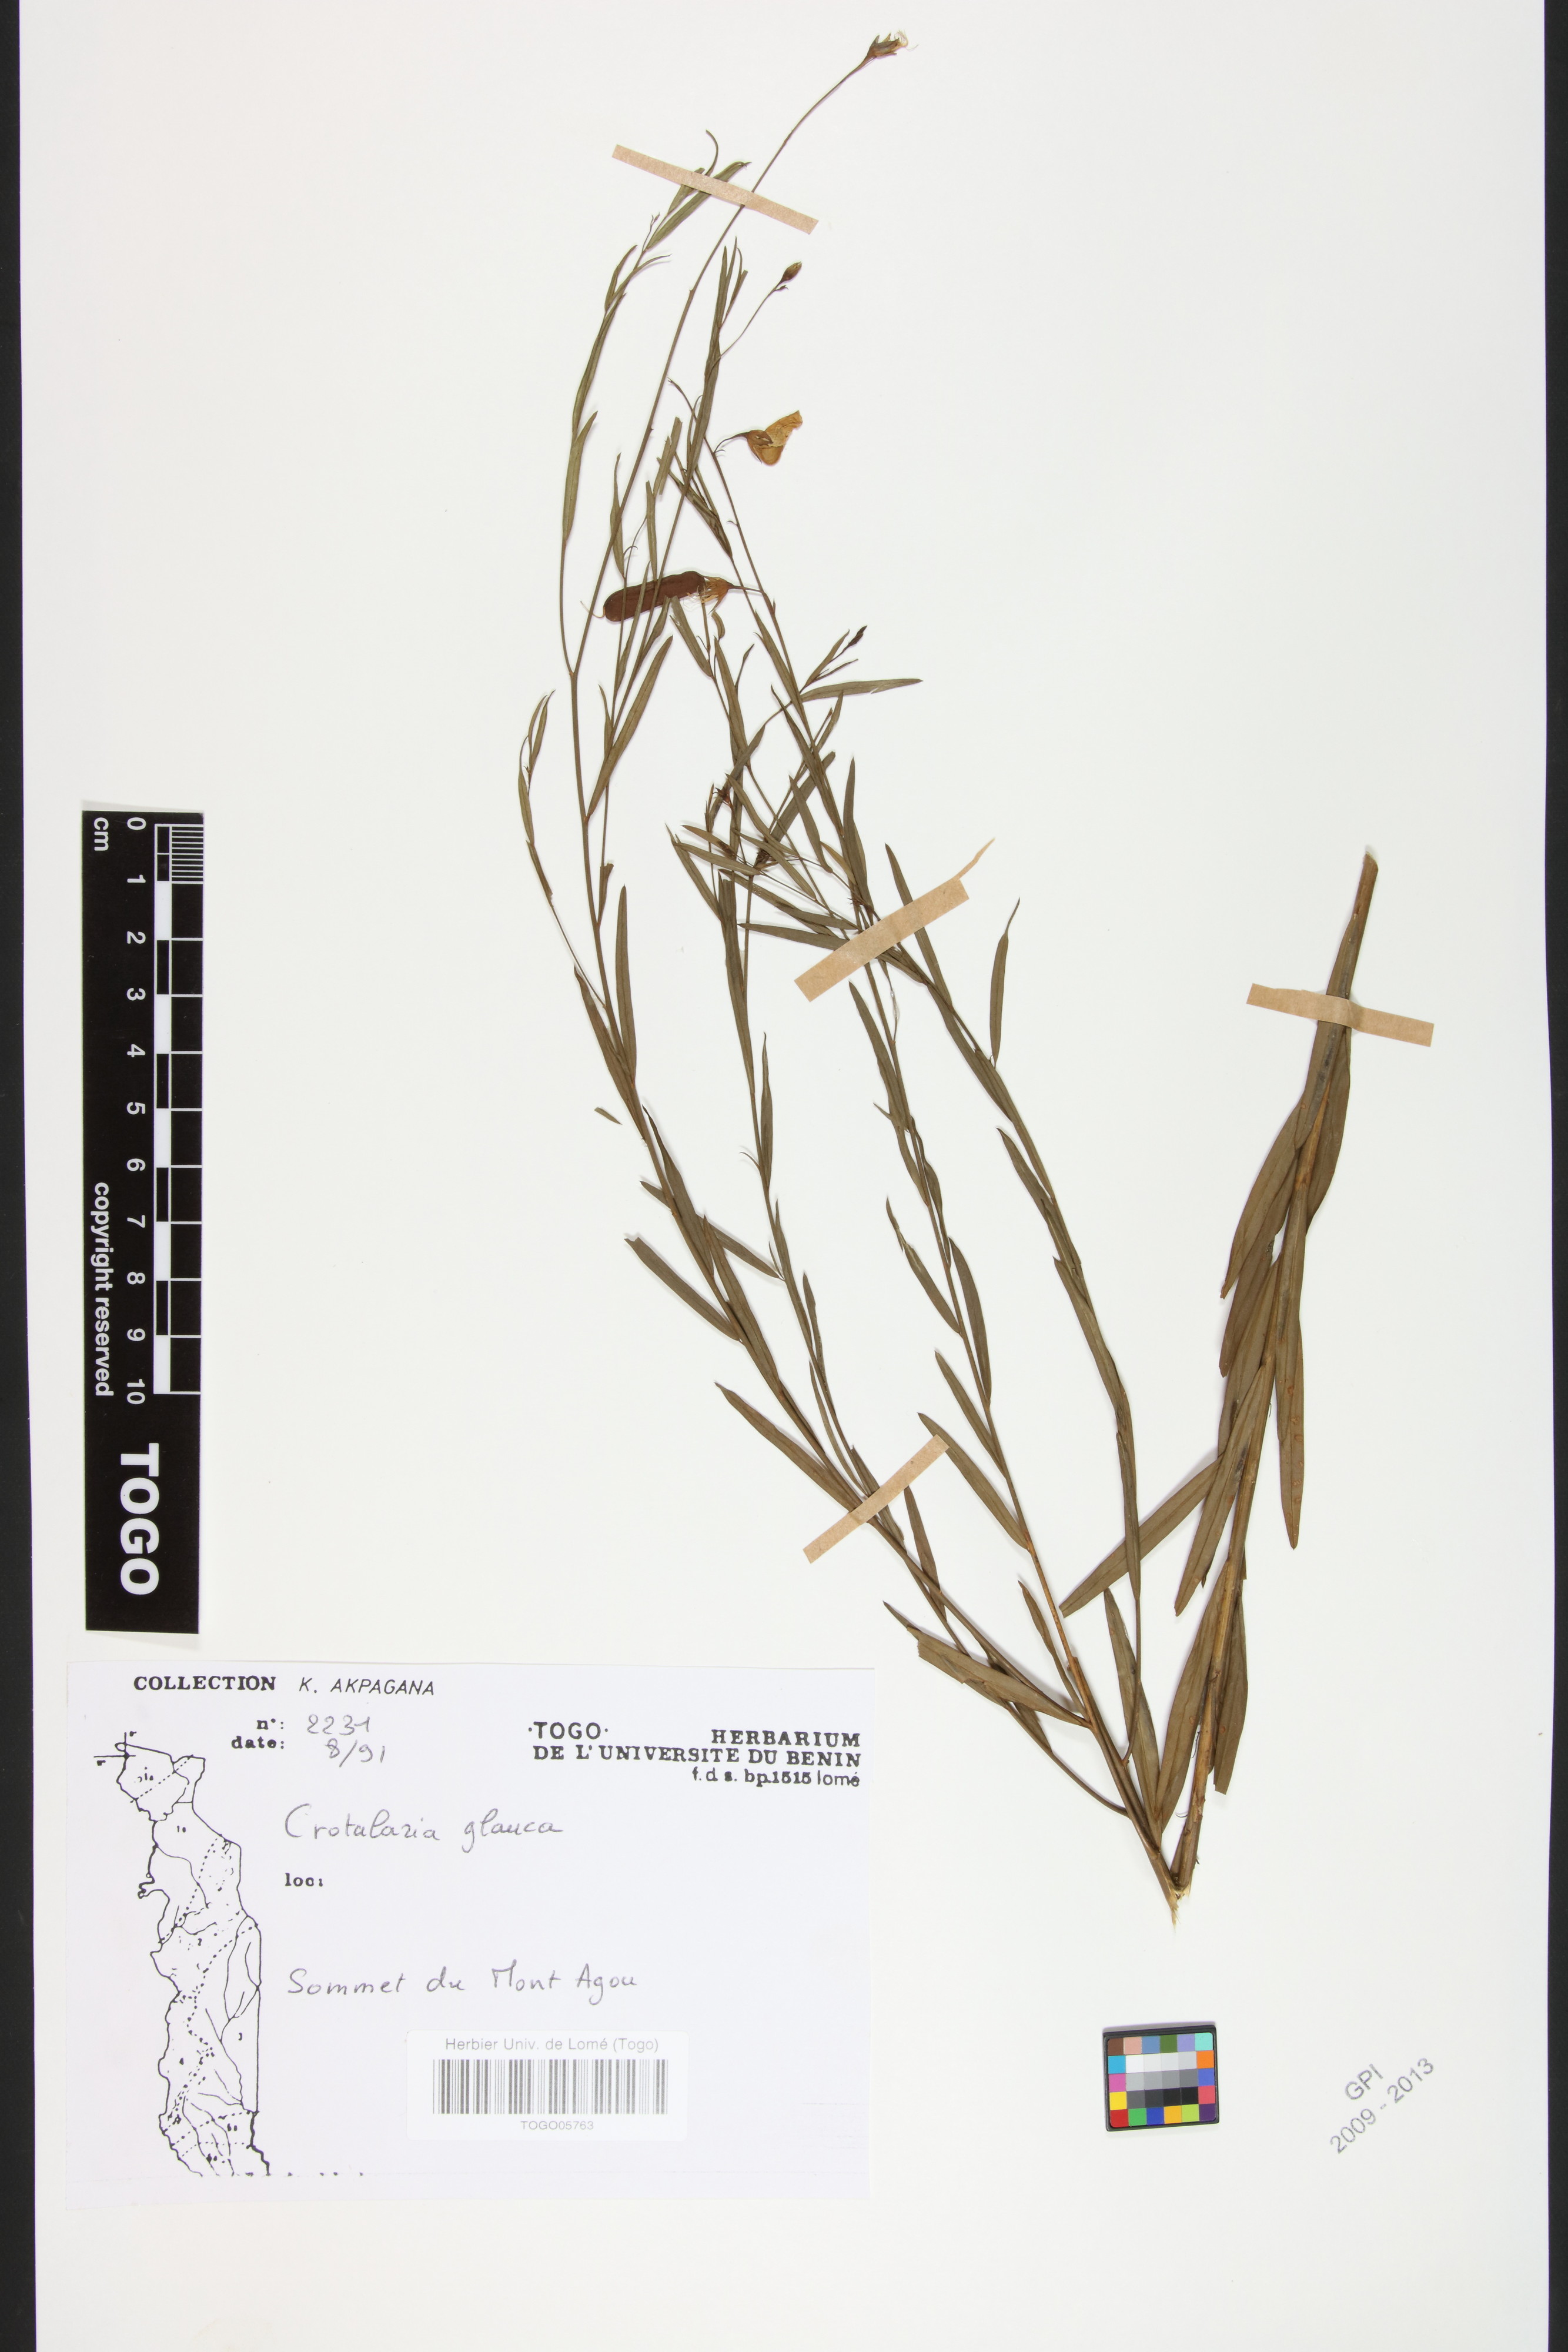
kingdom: Plantae
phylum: Tracheophyta
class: Magnoliopsida
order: Fabales
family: Fabaceae
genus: Crotalaria
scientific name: Crotalaria glauca
